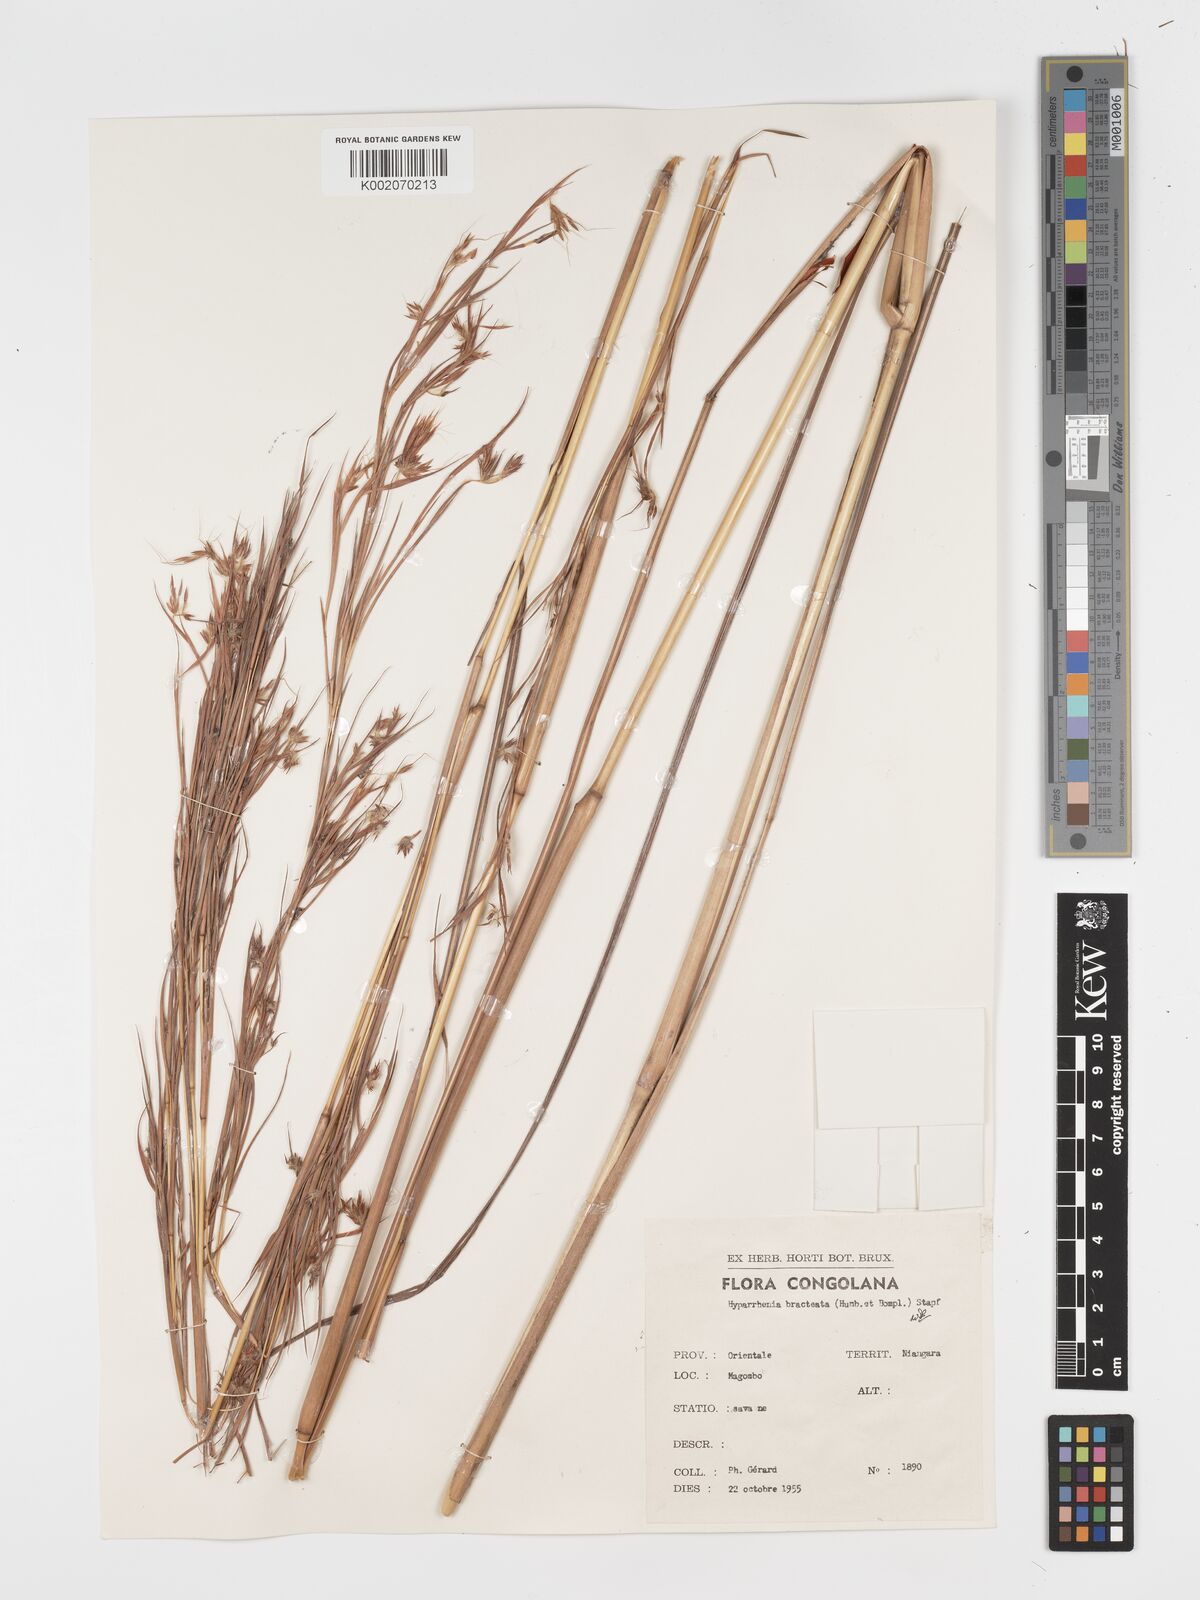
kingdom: Plantae
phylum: Tracheophyta
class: Liliopsida
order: Poales
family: Poaceae
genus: Hyparrhenia
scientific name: Hyparrhenia bracteata
